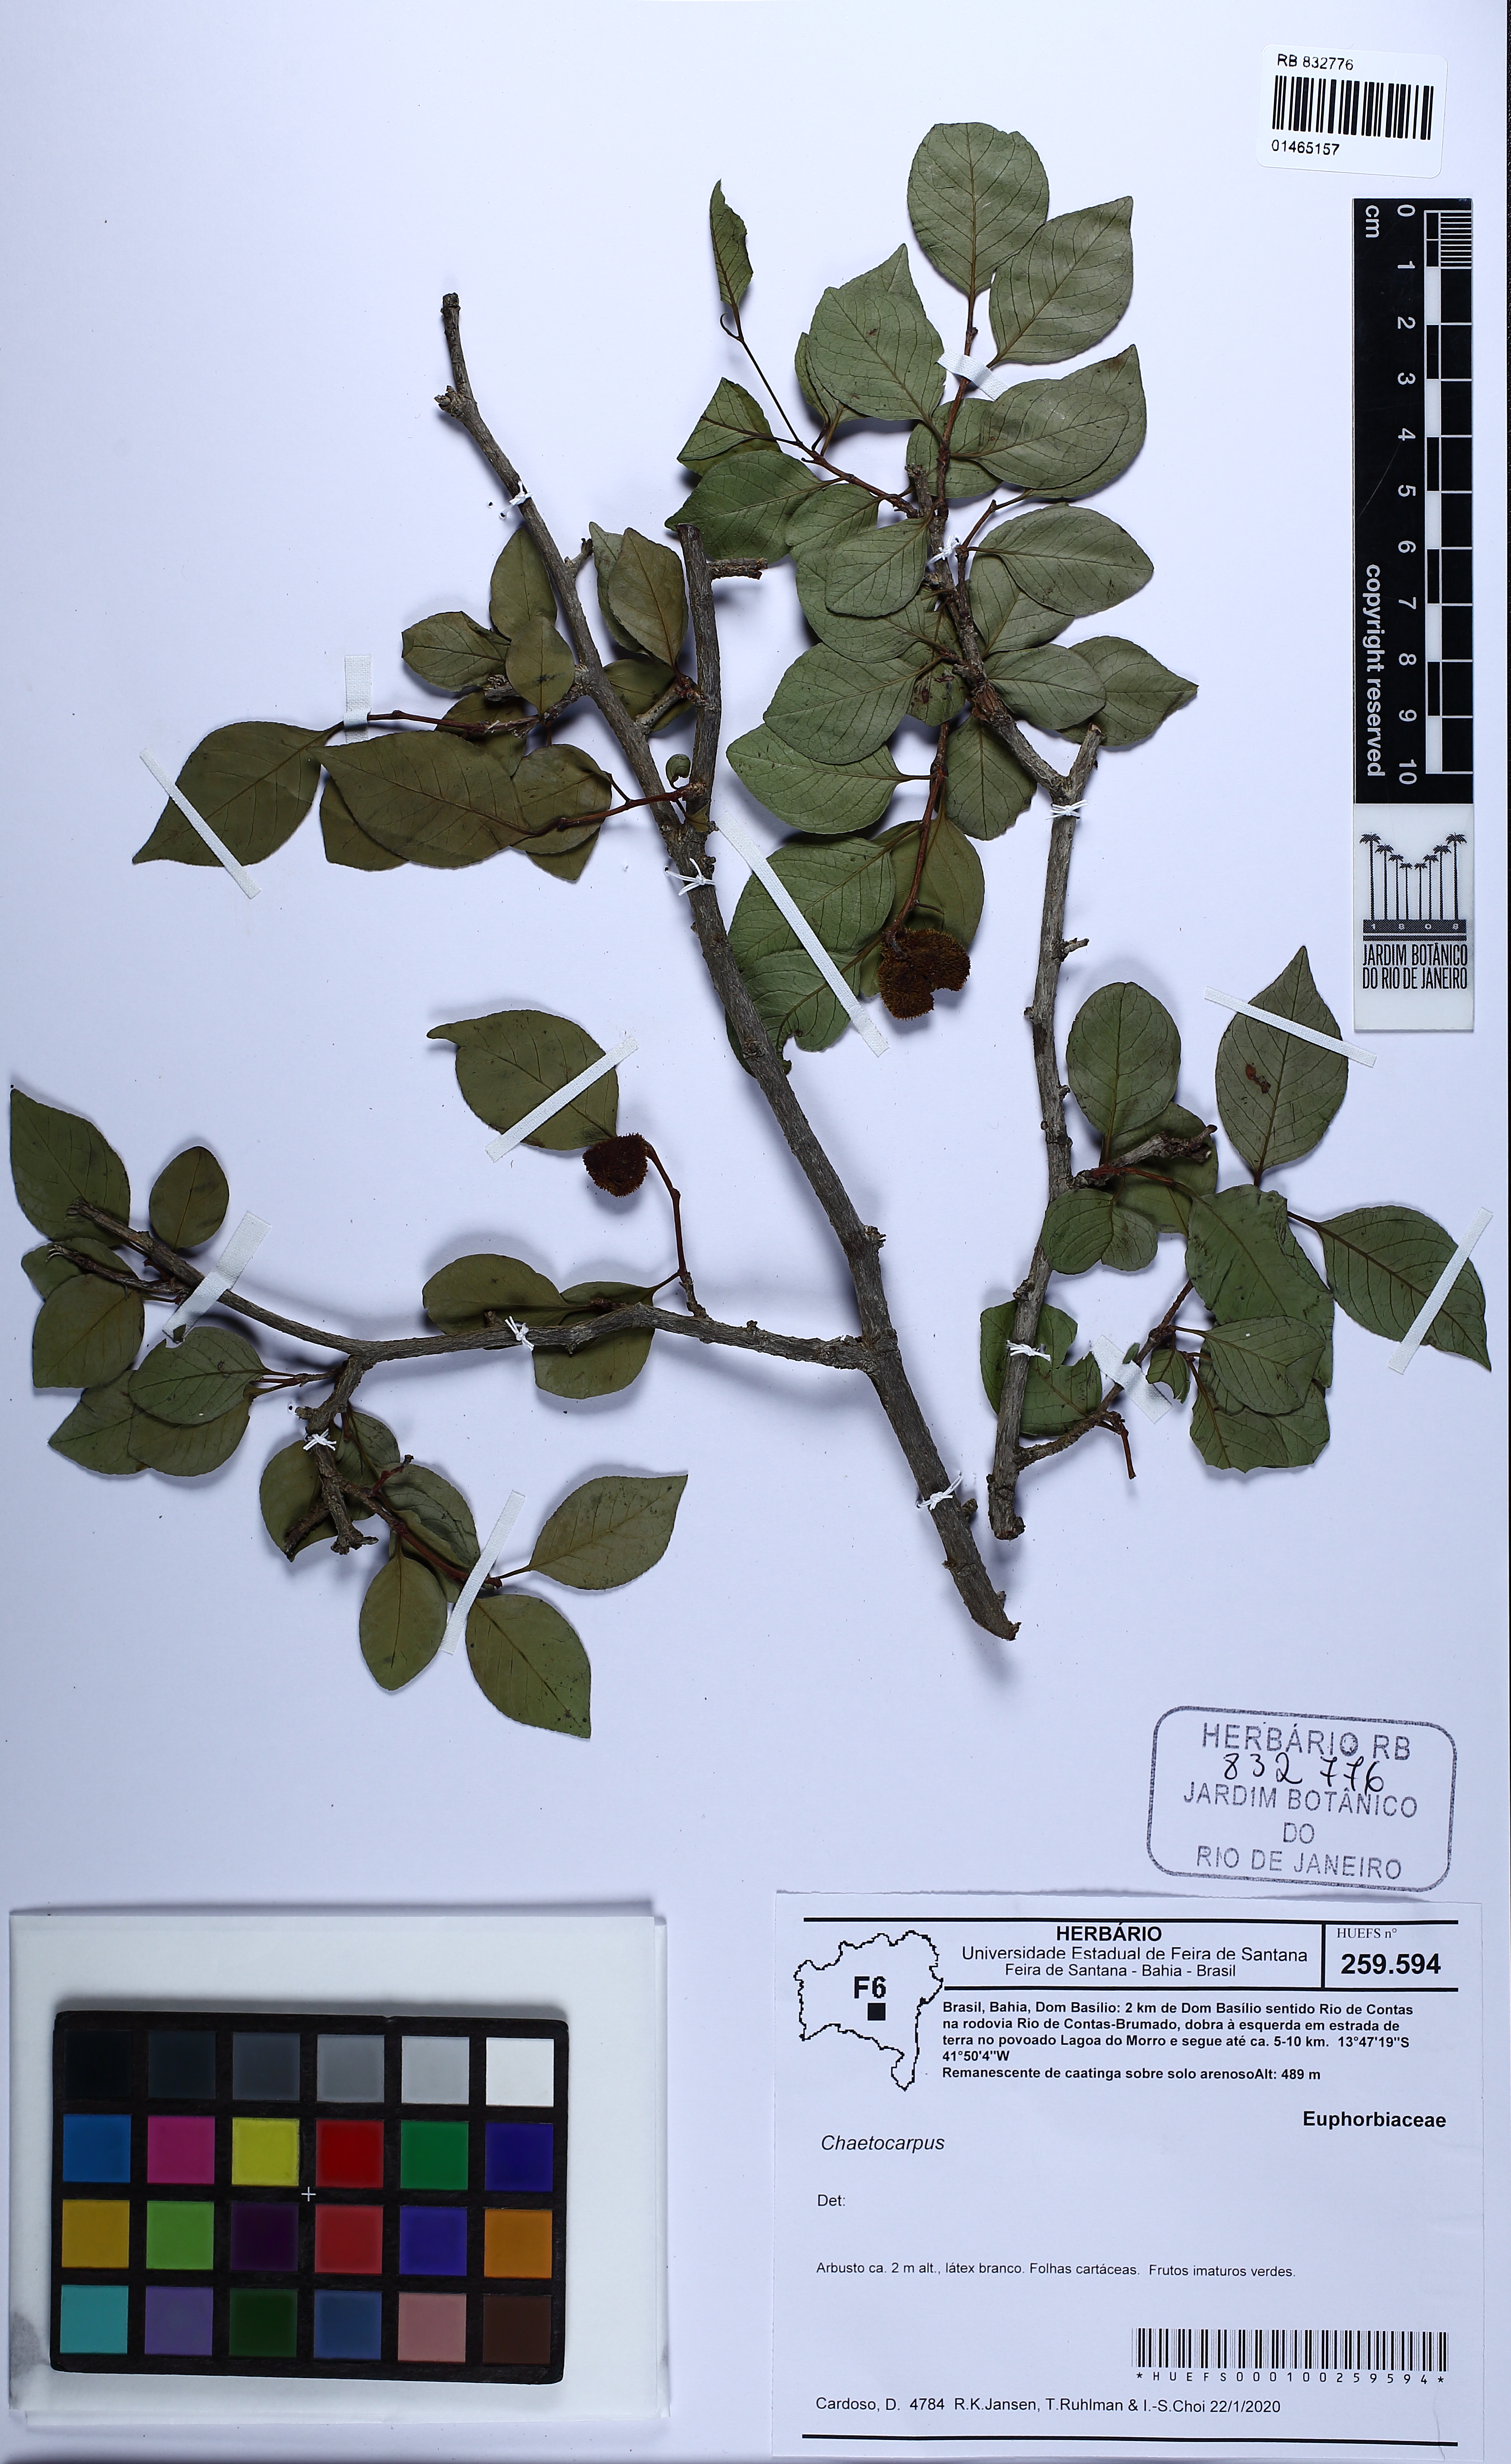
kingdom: Plantae
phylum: Tracheophyta
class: Magnoliopsida
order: Malpighiales
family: Peraceae
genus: Chaetocarpus
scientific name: Chaetocarpus
